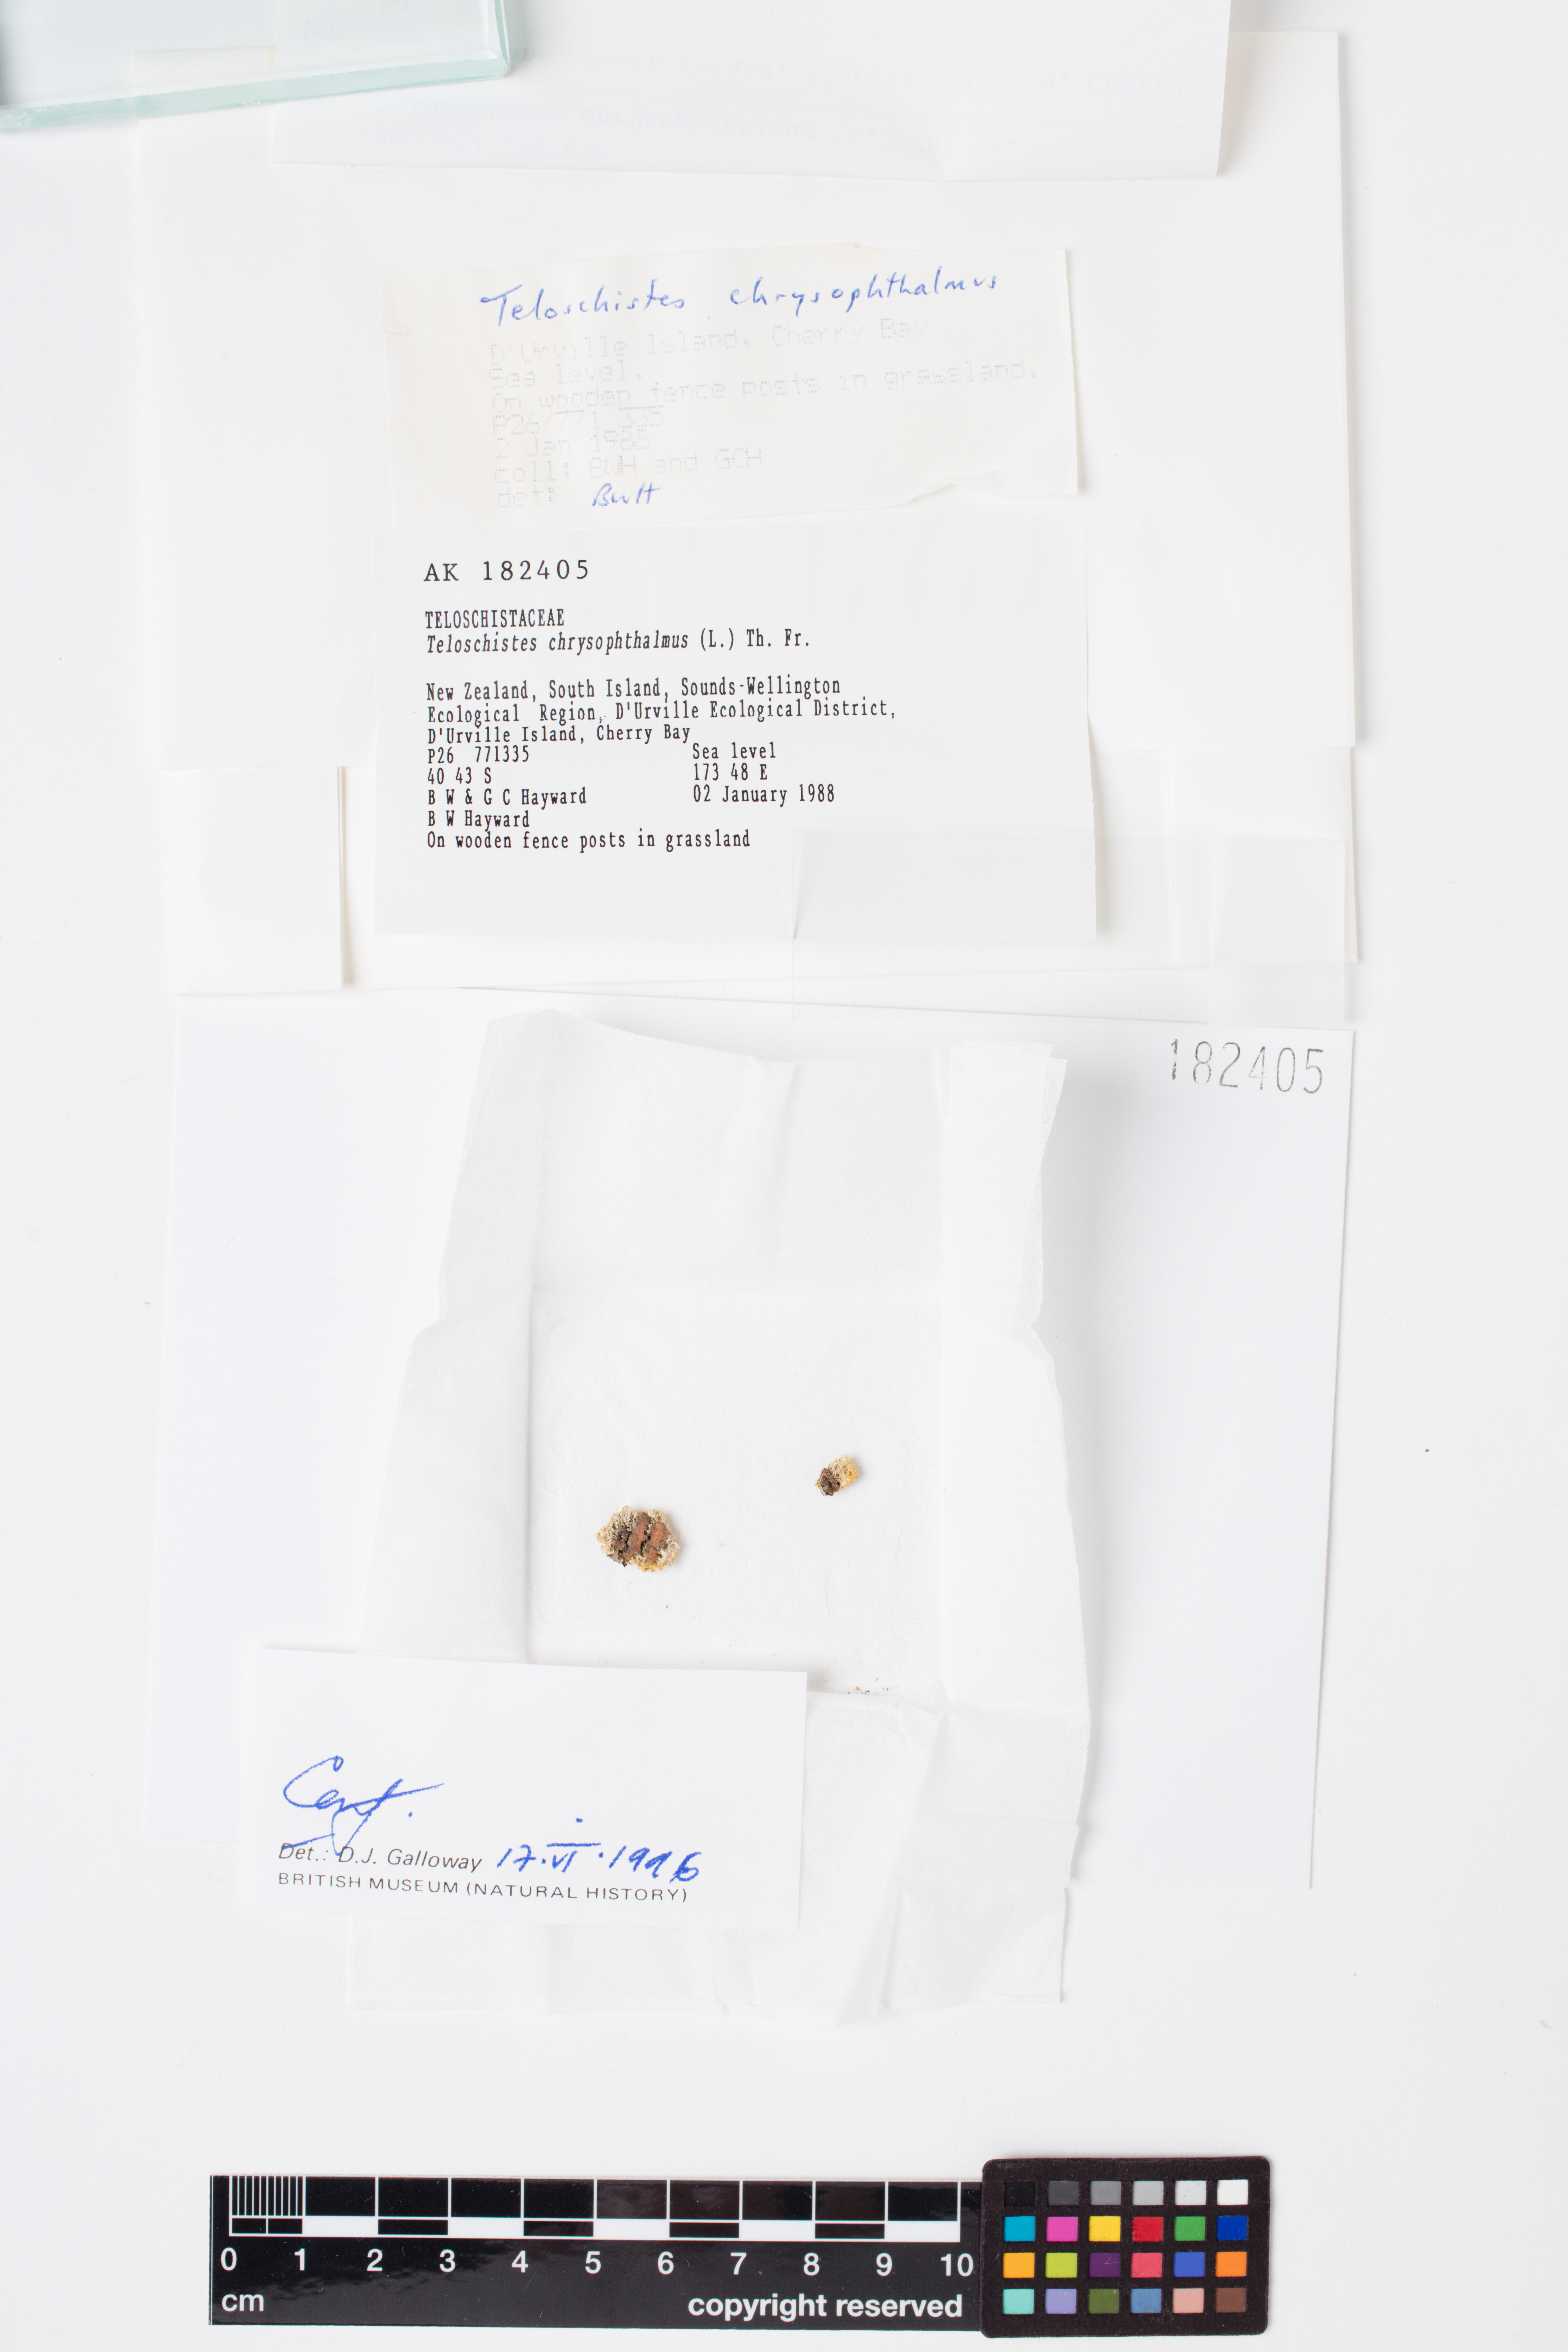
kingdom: Fungi
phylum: Ascomycota
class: Lecanoromycetes
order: Teloschistales
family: Teloschistaceae
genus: Niorma
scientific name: Niorma chrysophthalma
